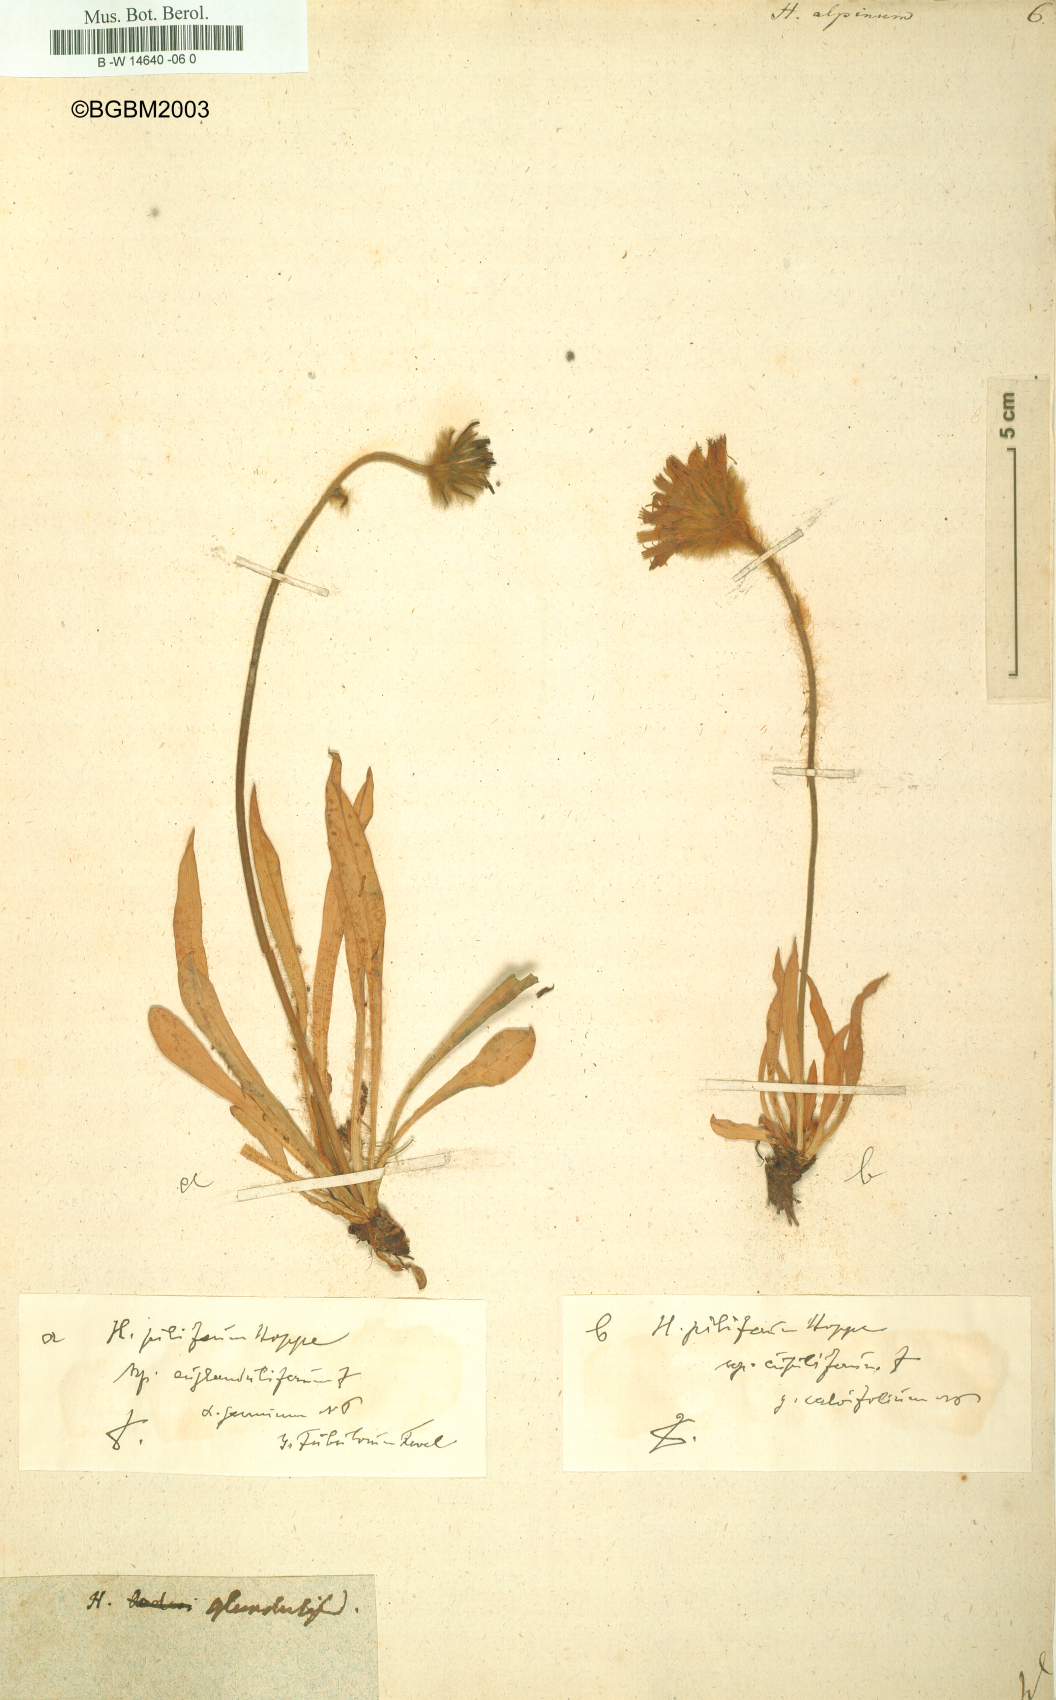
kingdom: Plantae
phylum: Tracheophyta
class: Magnoliopsida
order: Asterales
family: Asteraceae
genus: Hieracium
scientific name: Hieracium alpinum
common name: Alpine hawkweed
